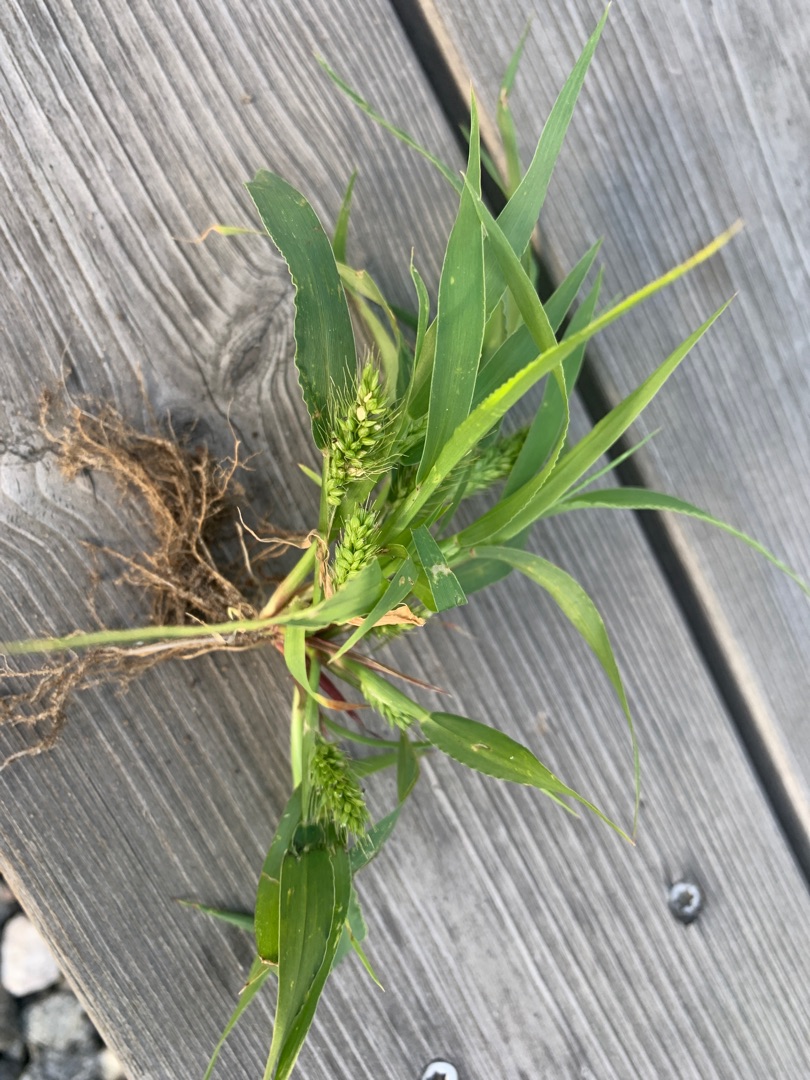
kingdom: Plantae
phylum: Tracheophyta
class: Liliopsida
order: Poales
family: Poaceae
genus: Setaria
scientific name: Setaria viridis
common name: Grøn skærmaks
